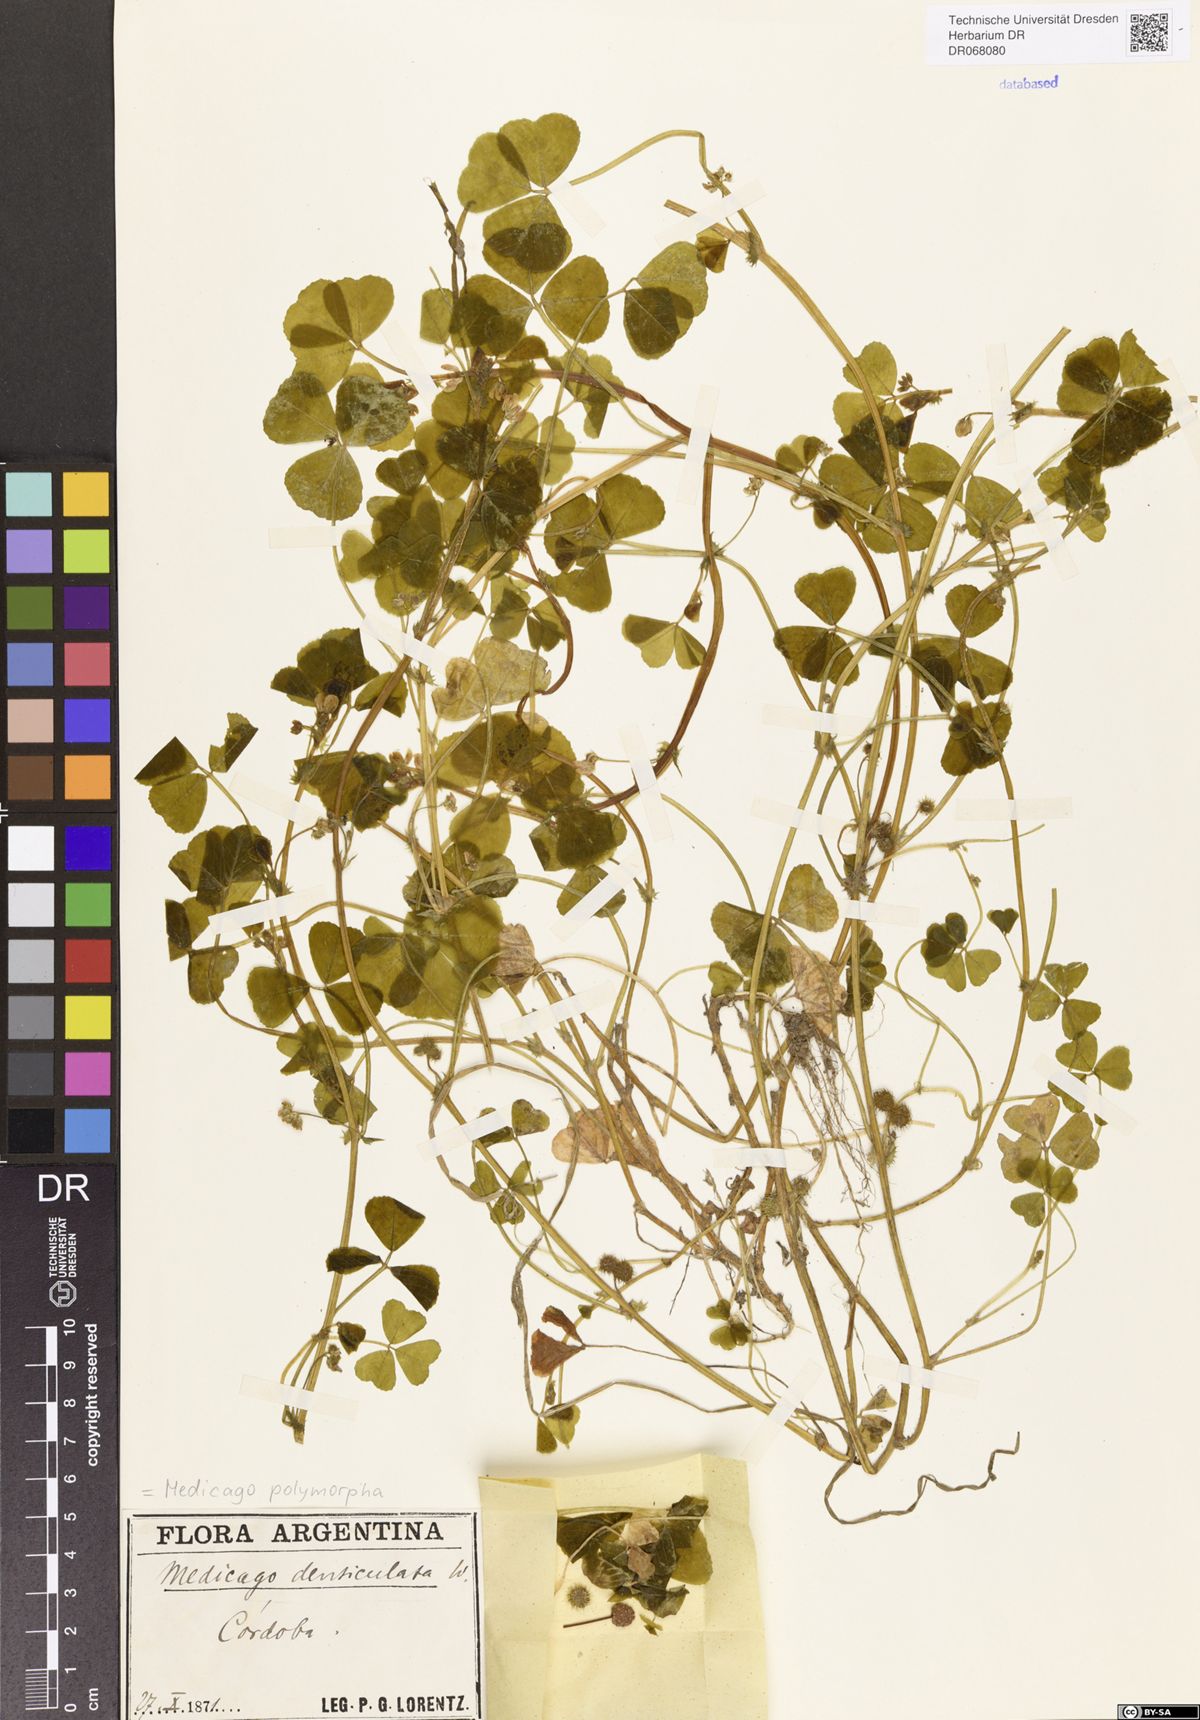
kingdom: Plantae
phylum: Tracheophyta
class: Magnoliopsida
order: Fabales
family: Fabaceae
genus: Medicago
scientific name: Medicago polymorpha
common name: Burclover
